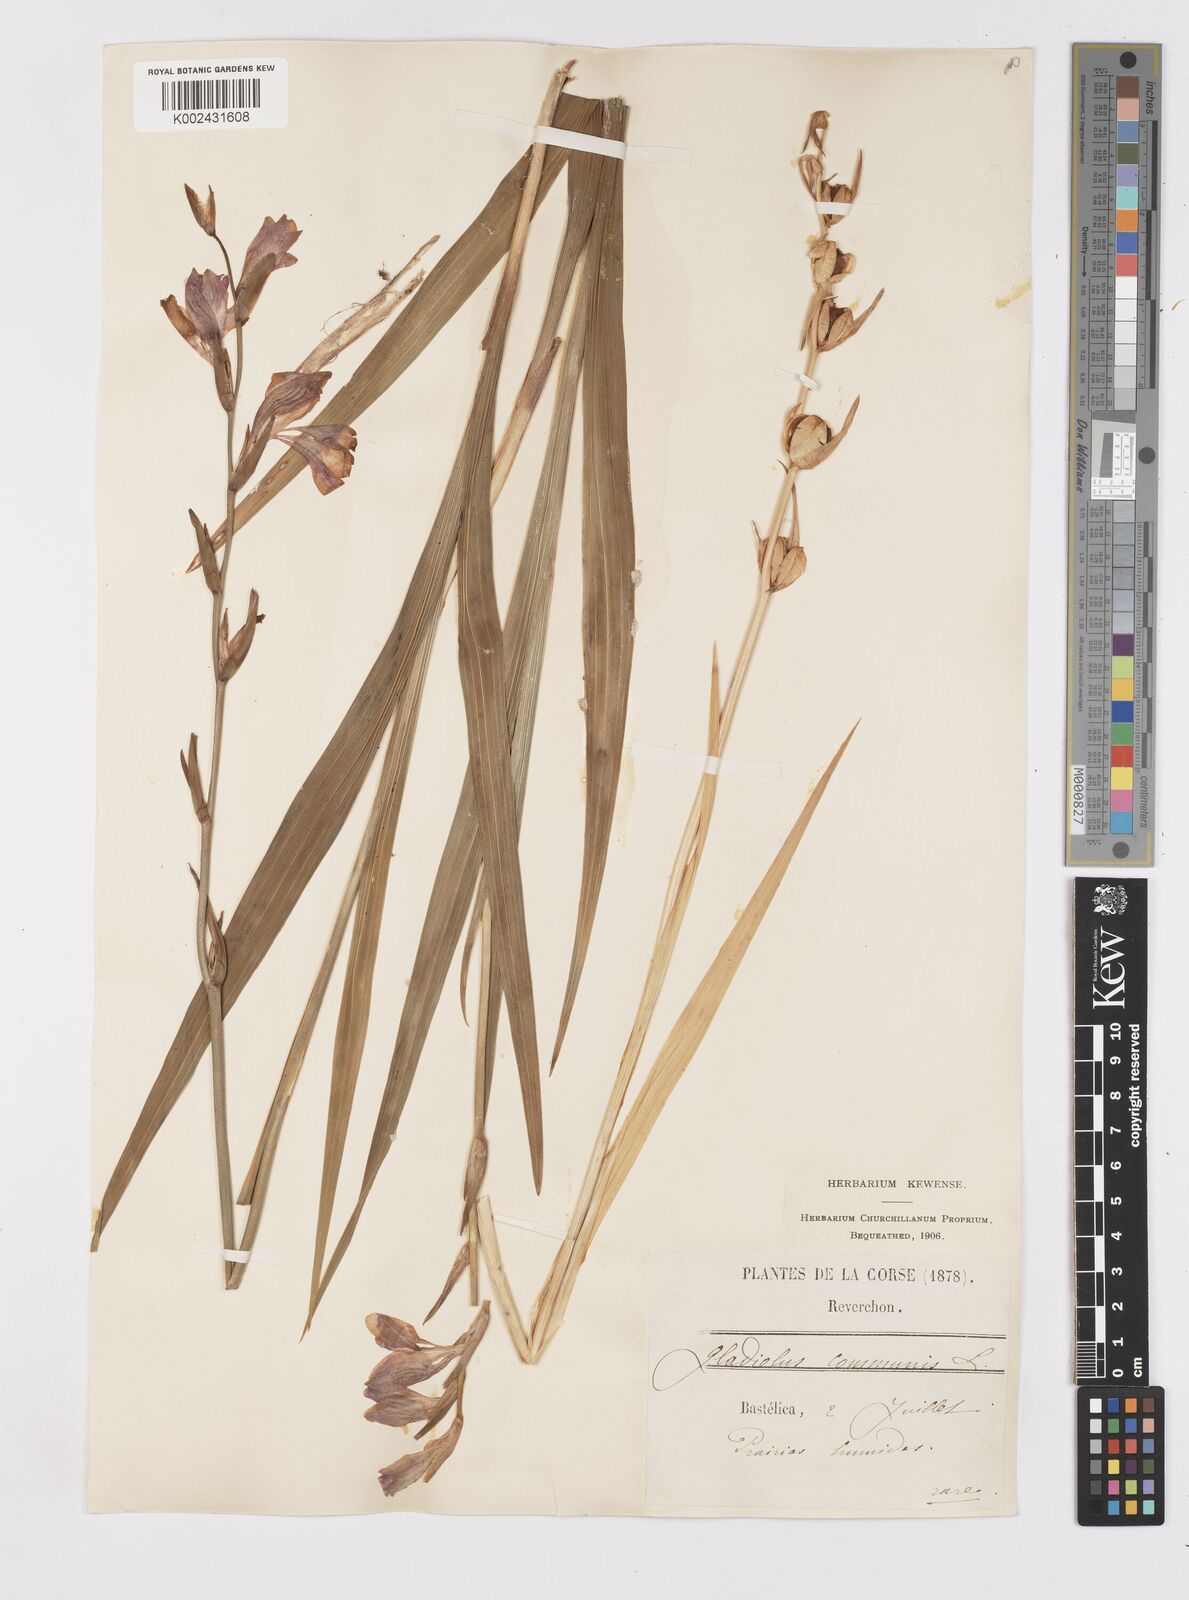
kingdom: Plantae
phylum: Tracheophyta
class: Liliopsida
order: Asparagales
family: Iridaceae
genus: Gladiolus
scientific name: Gladiolus communis
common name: Eastern gladiolus
